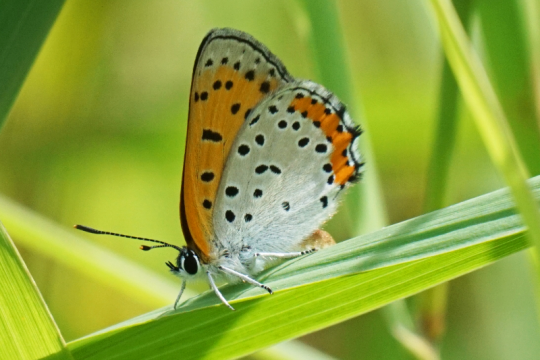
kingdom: Animalia
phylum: Arthropoda
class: Insecta
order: Lepidoptera
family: Sesiidae
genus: Sesia
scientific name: Sesia Lycaena hyllus
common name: Bronze Copper
